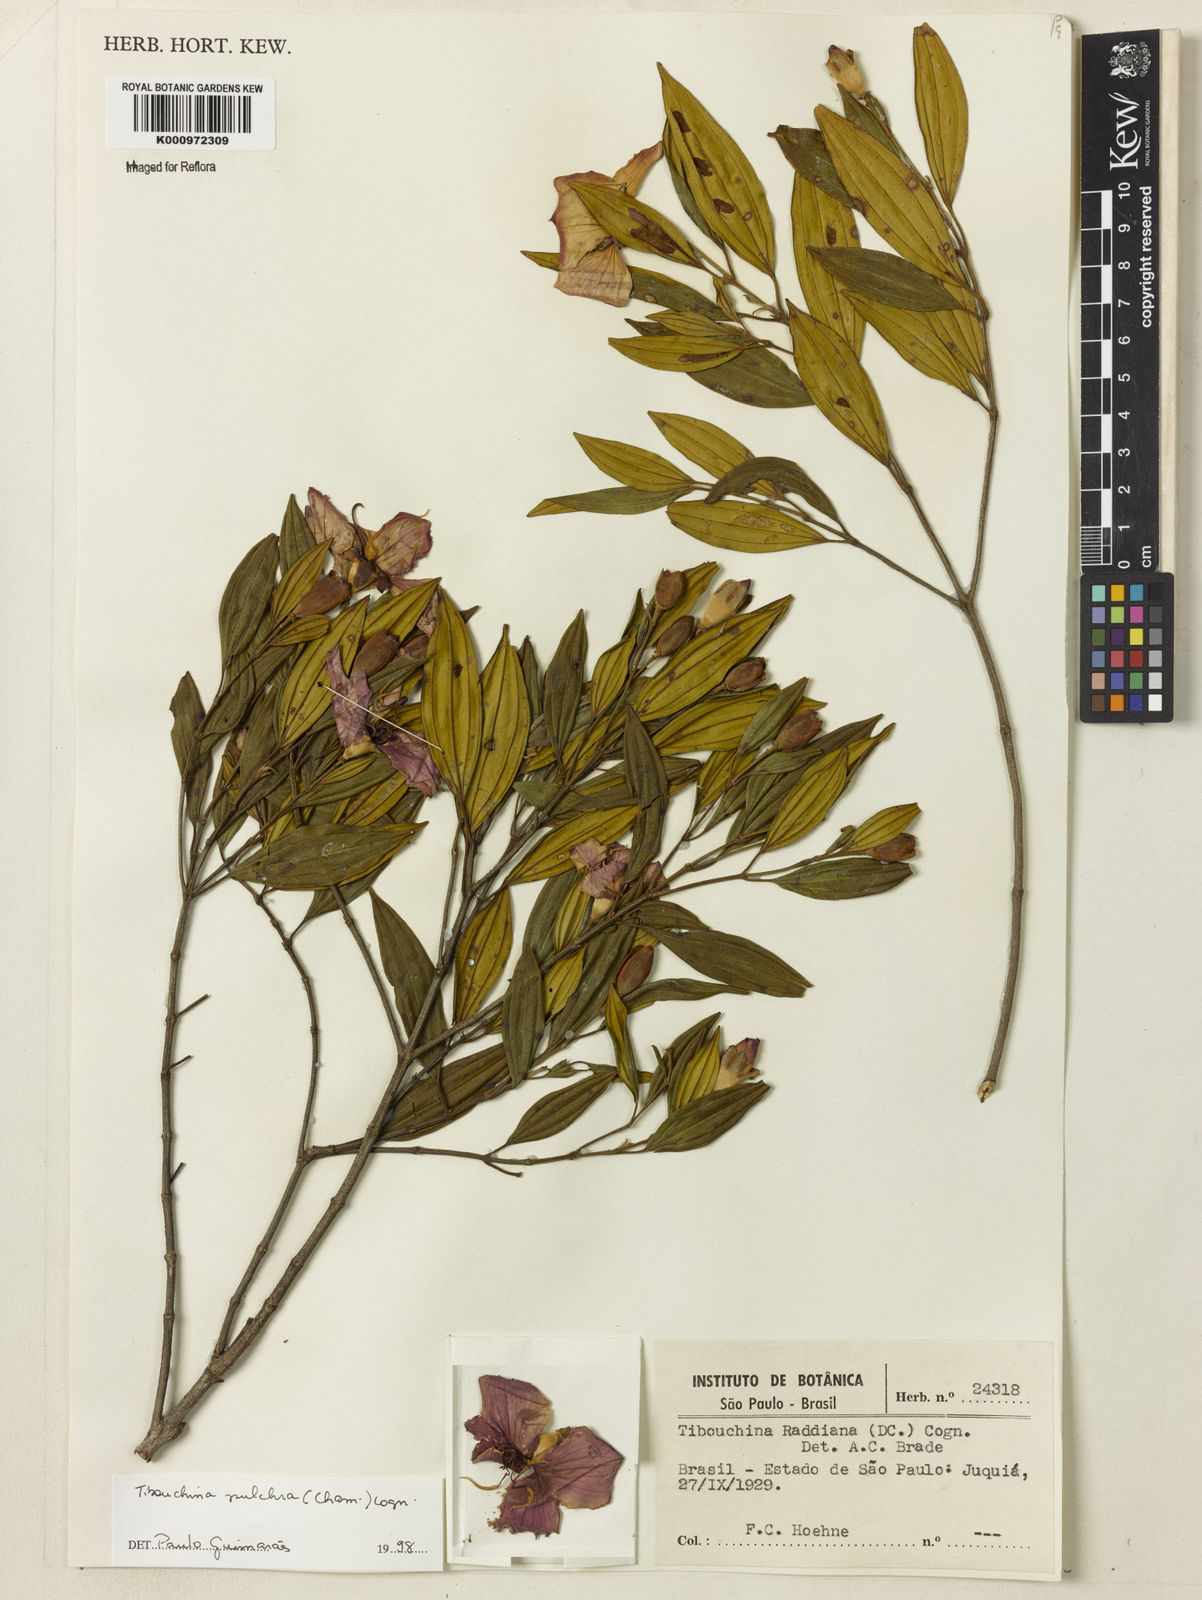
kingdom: Plantae
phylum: Tracheophyta
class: Magnoliopsida
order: Myrtales
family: Melastomataceae
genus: Pleroma
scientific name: Pleroma raddianum
